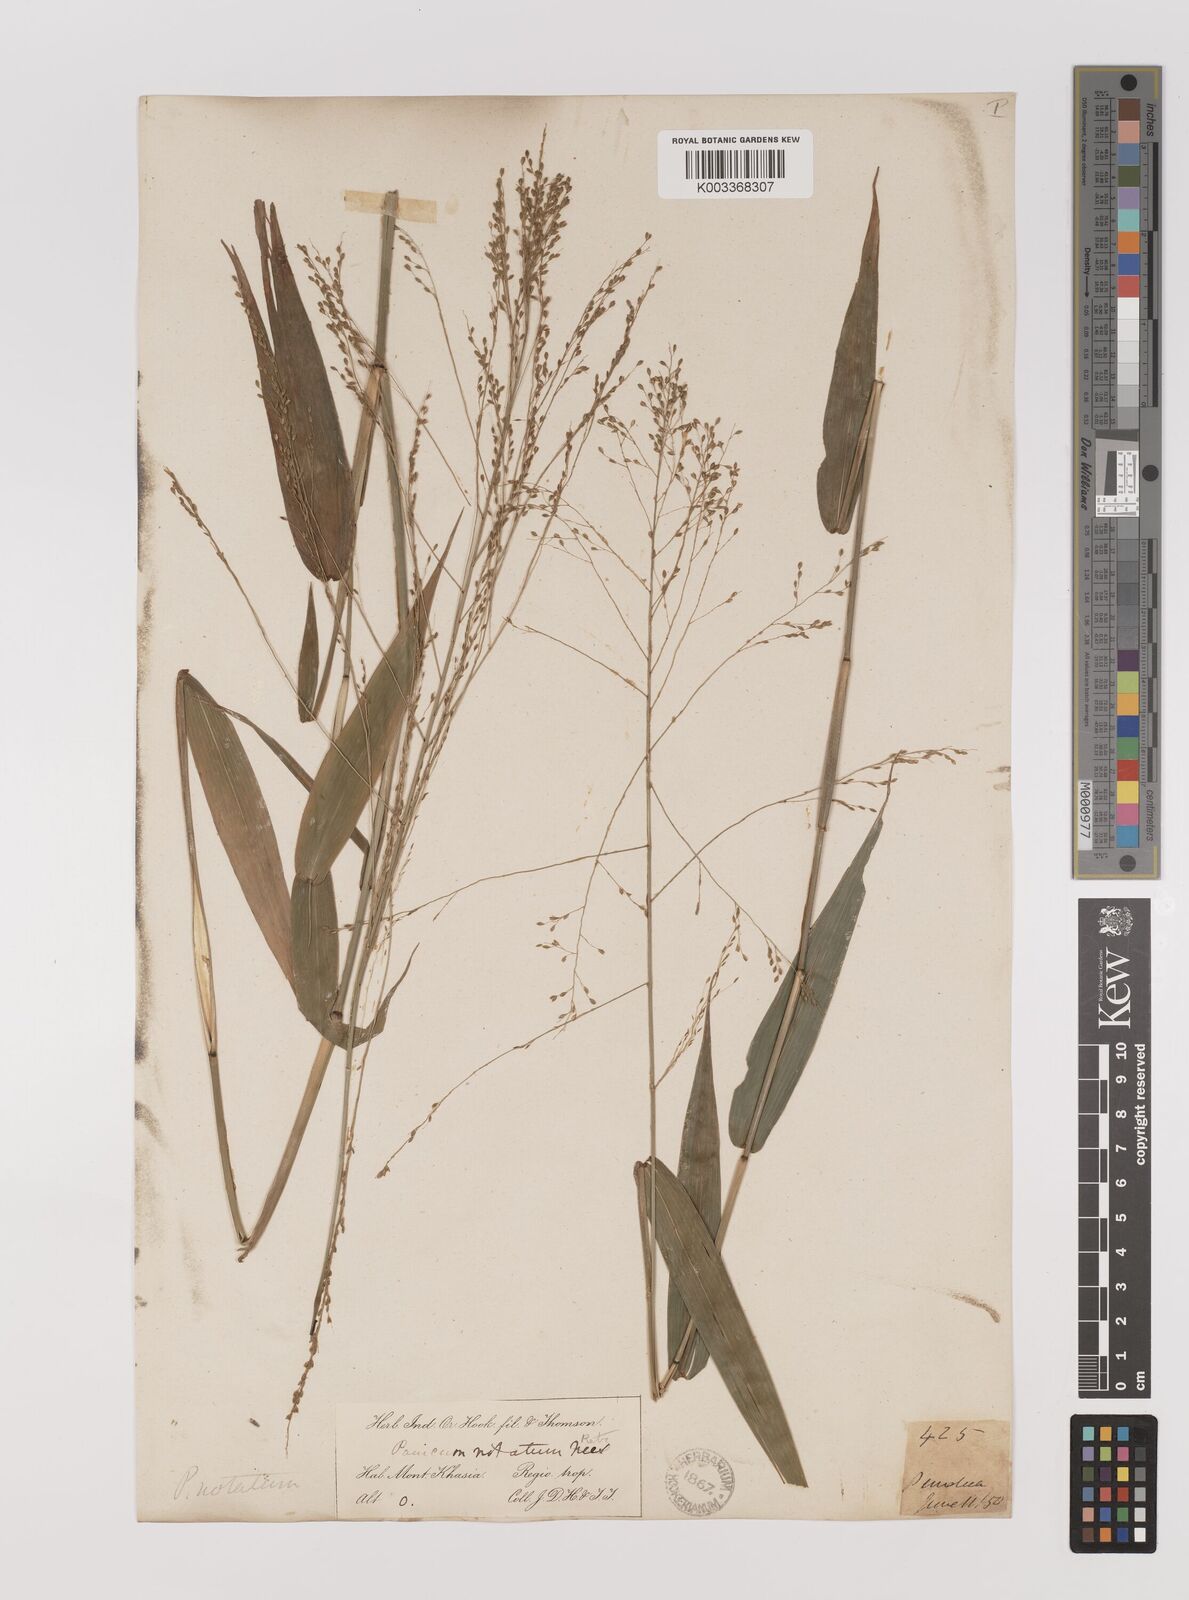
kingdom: Plantae
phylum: Tracheophyta
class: Liliopsida
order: Poales
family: Poaceae
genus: Panicum
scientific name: Panicum notatum
